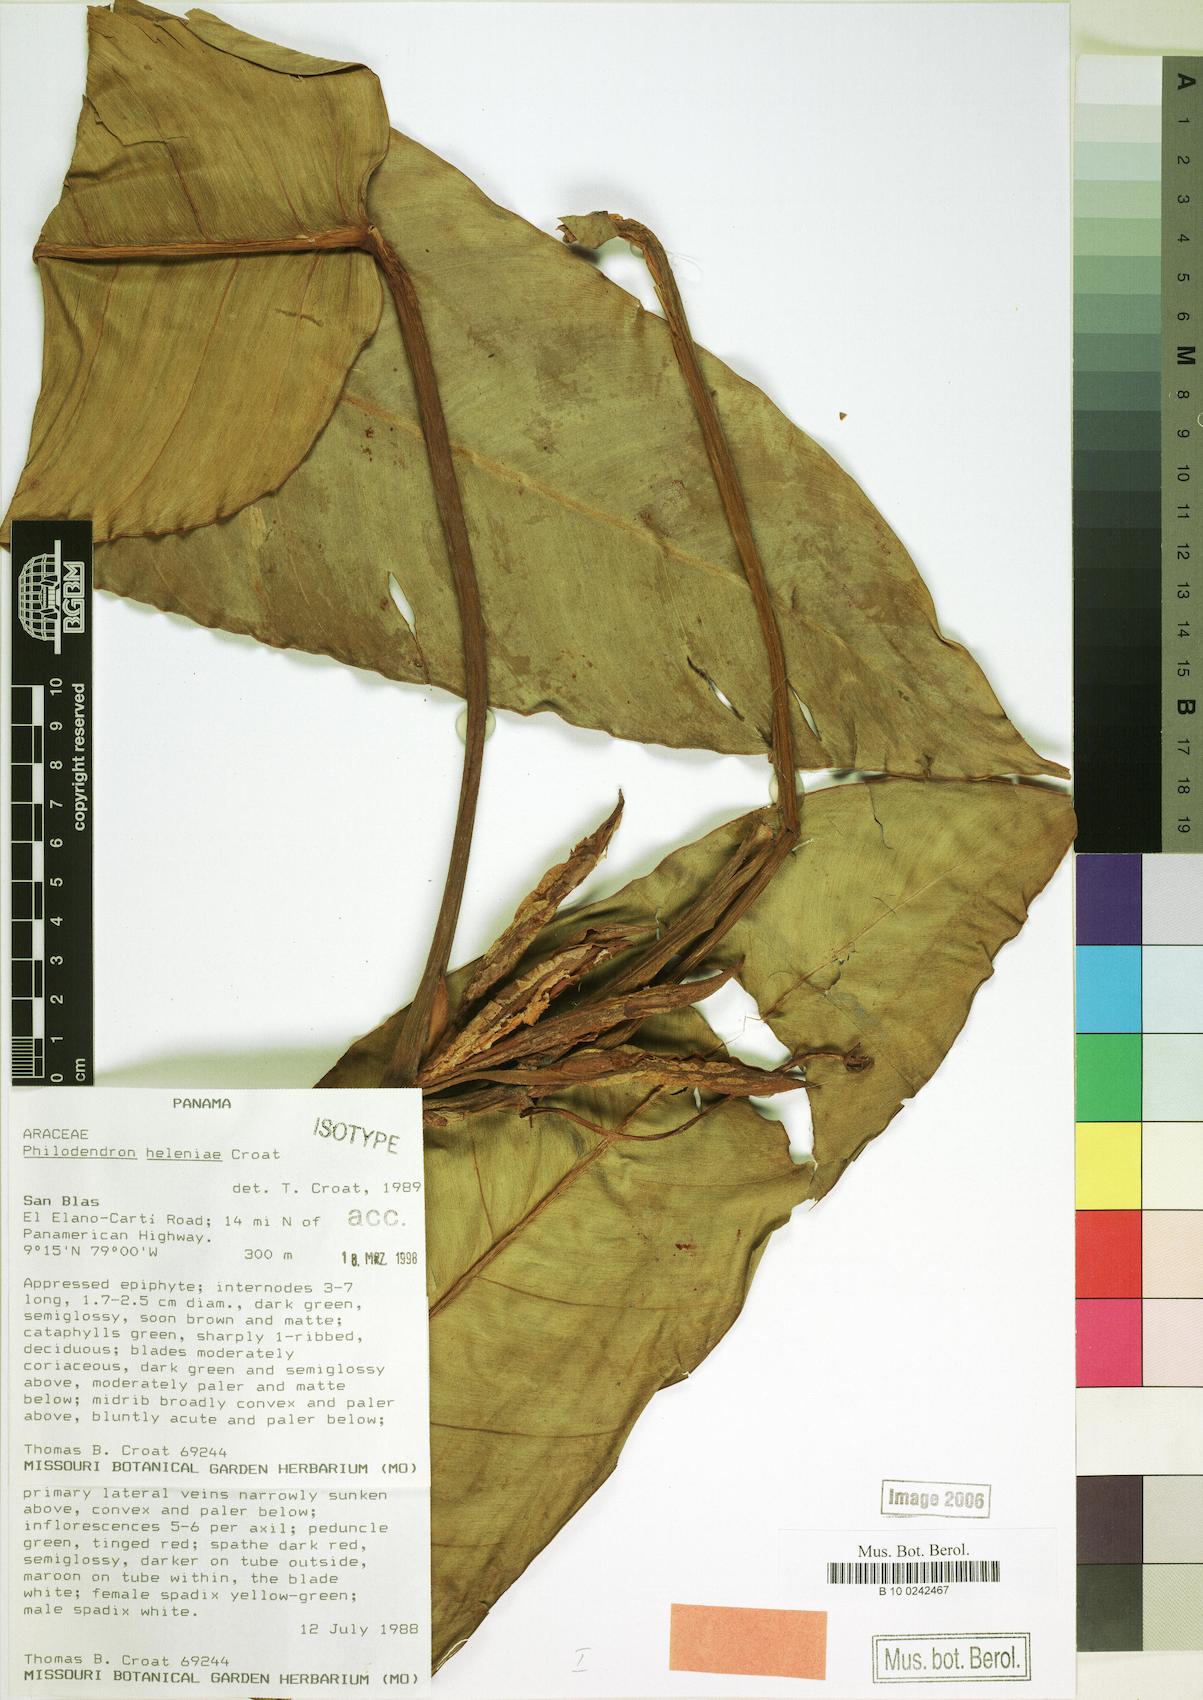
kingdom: Plantae
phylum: Tracheophyta
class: Liliopsida
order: Alismatales
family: Araceae
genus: Philodendron
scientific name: Philodendron heleniae
